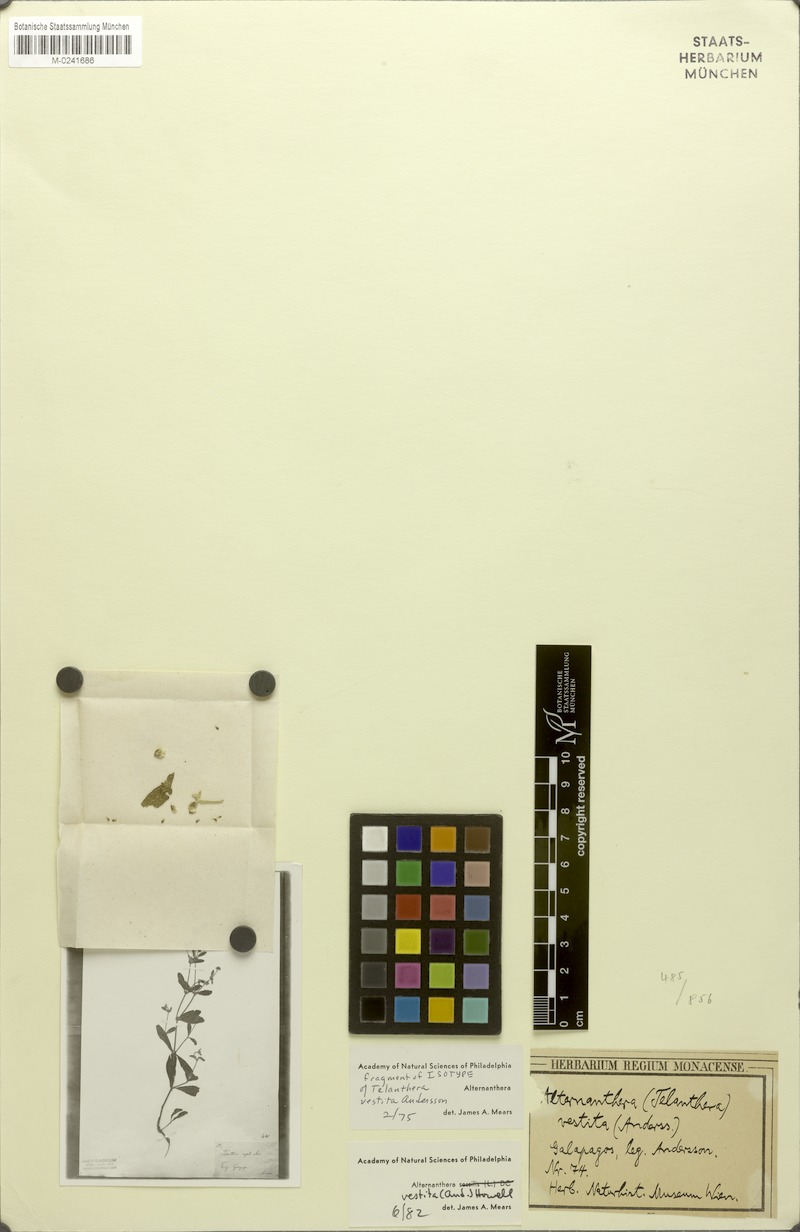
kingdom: Plantae
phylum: Tracheophyta
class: Magnoliopsida
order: Caryophyllales
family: Amaranthaceae
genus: Alternanthera
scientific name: Alternanthera vestita
